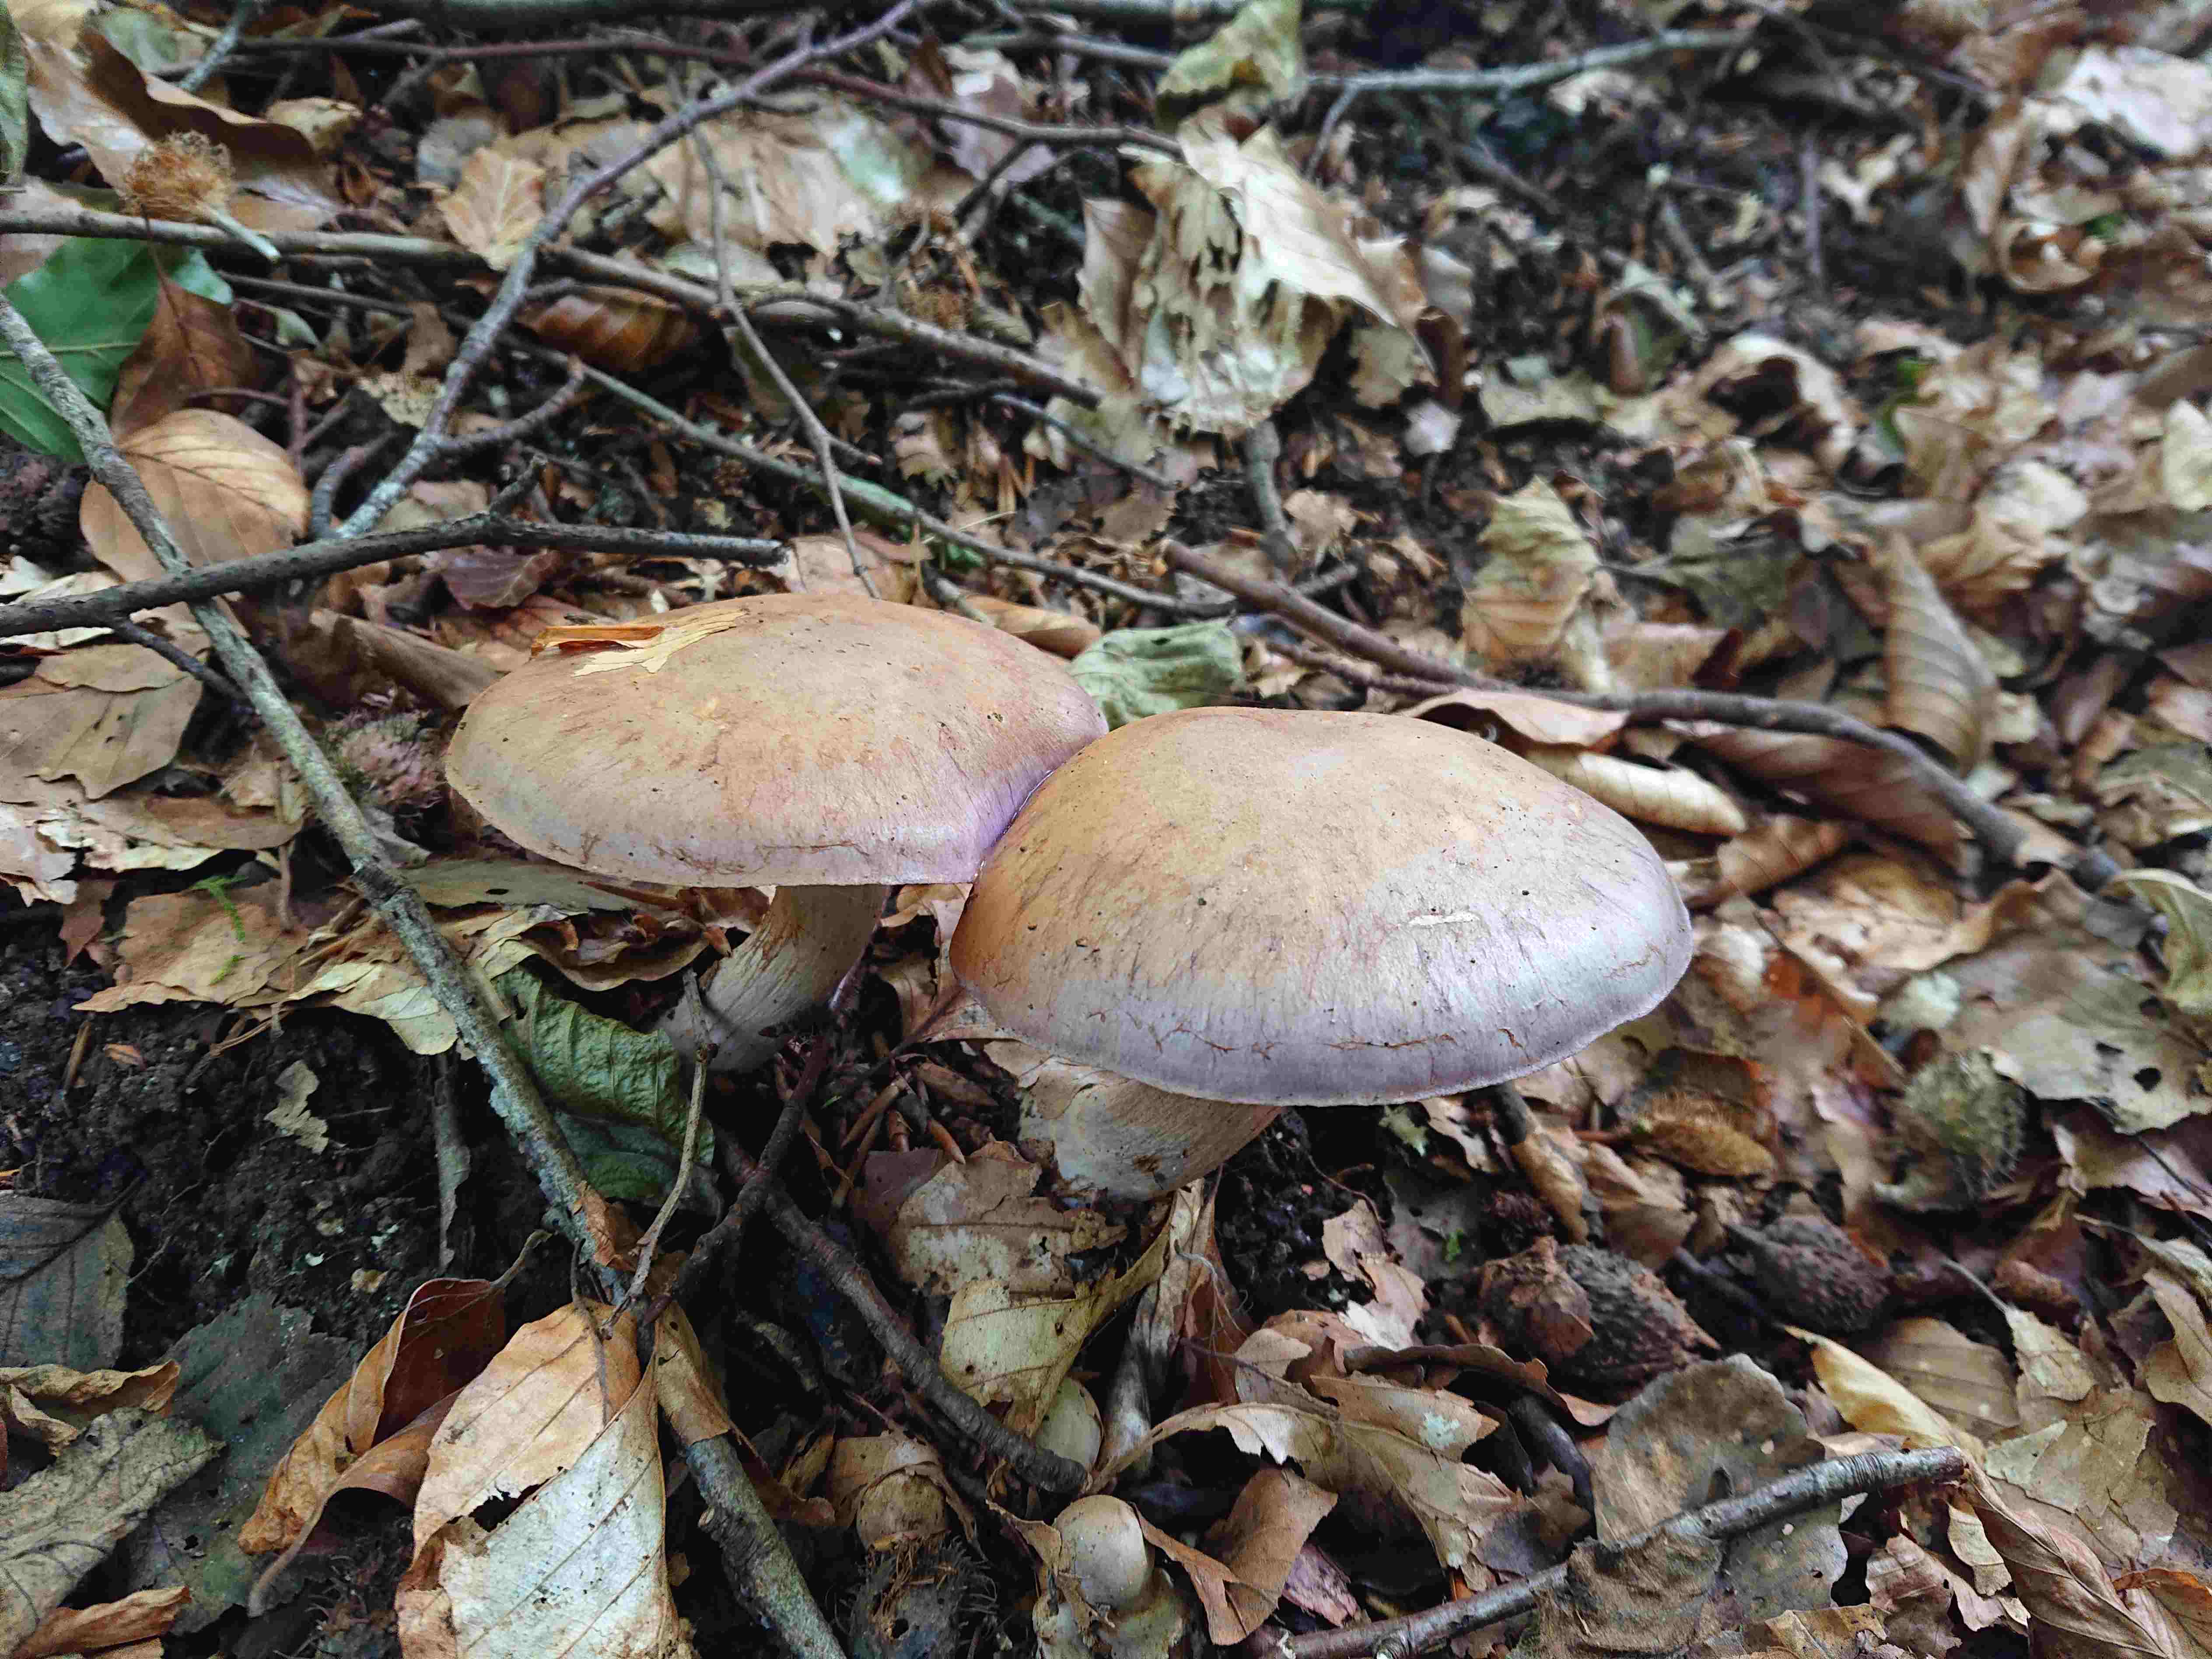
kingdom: Fungi
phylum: Basidiomycota
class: Agaricomycetes
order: Agaricales
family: Cortinariaceae
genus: Cortinarius
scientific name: Cortinarius
